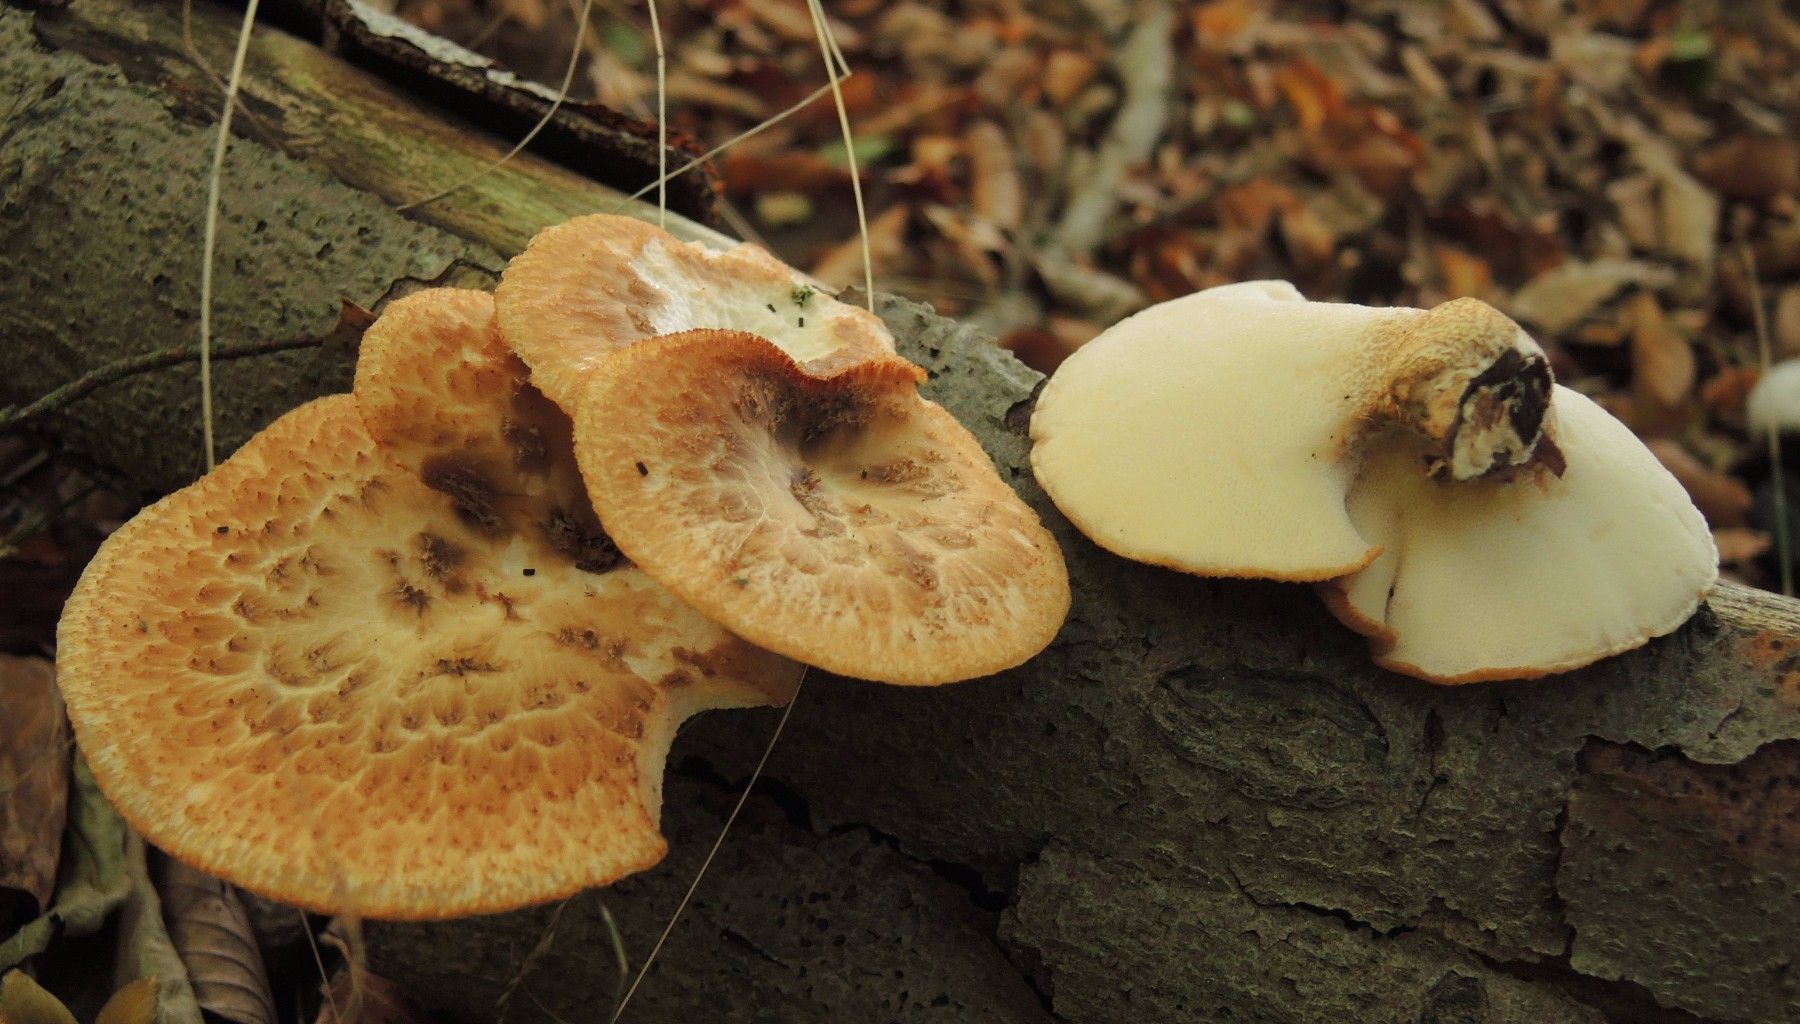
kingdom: Fungi
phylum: Basidiomycota
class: Agaricomycetes
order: Polyporales
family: Polyporaceae
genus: Polyporus
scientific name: Polyporus tuberaster
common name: knoldet stilkporesvamp
